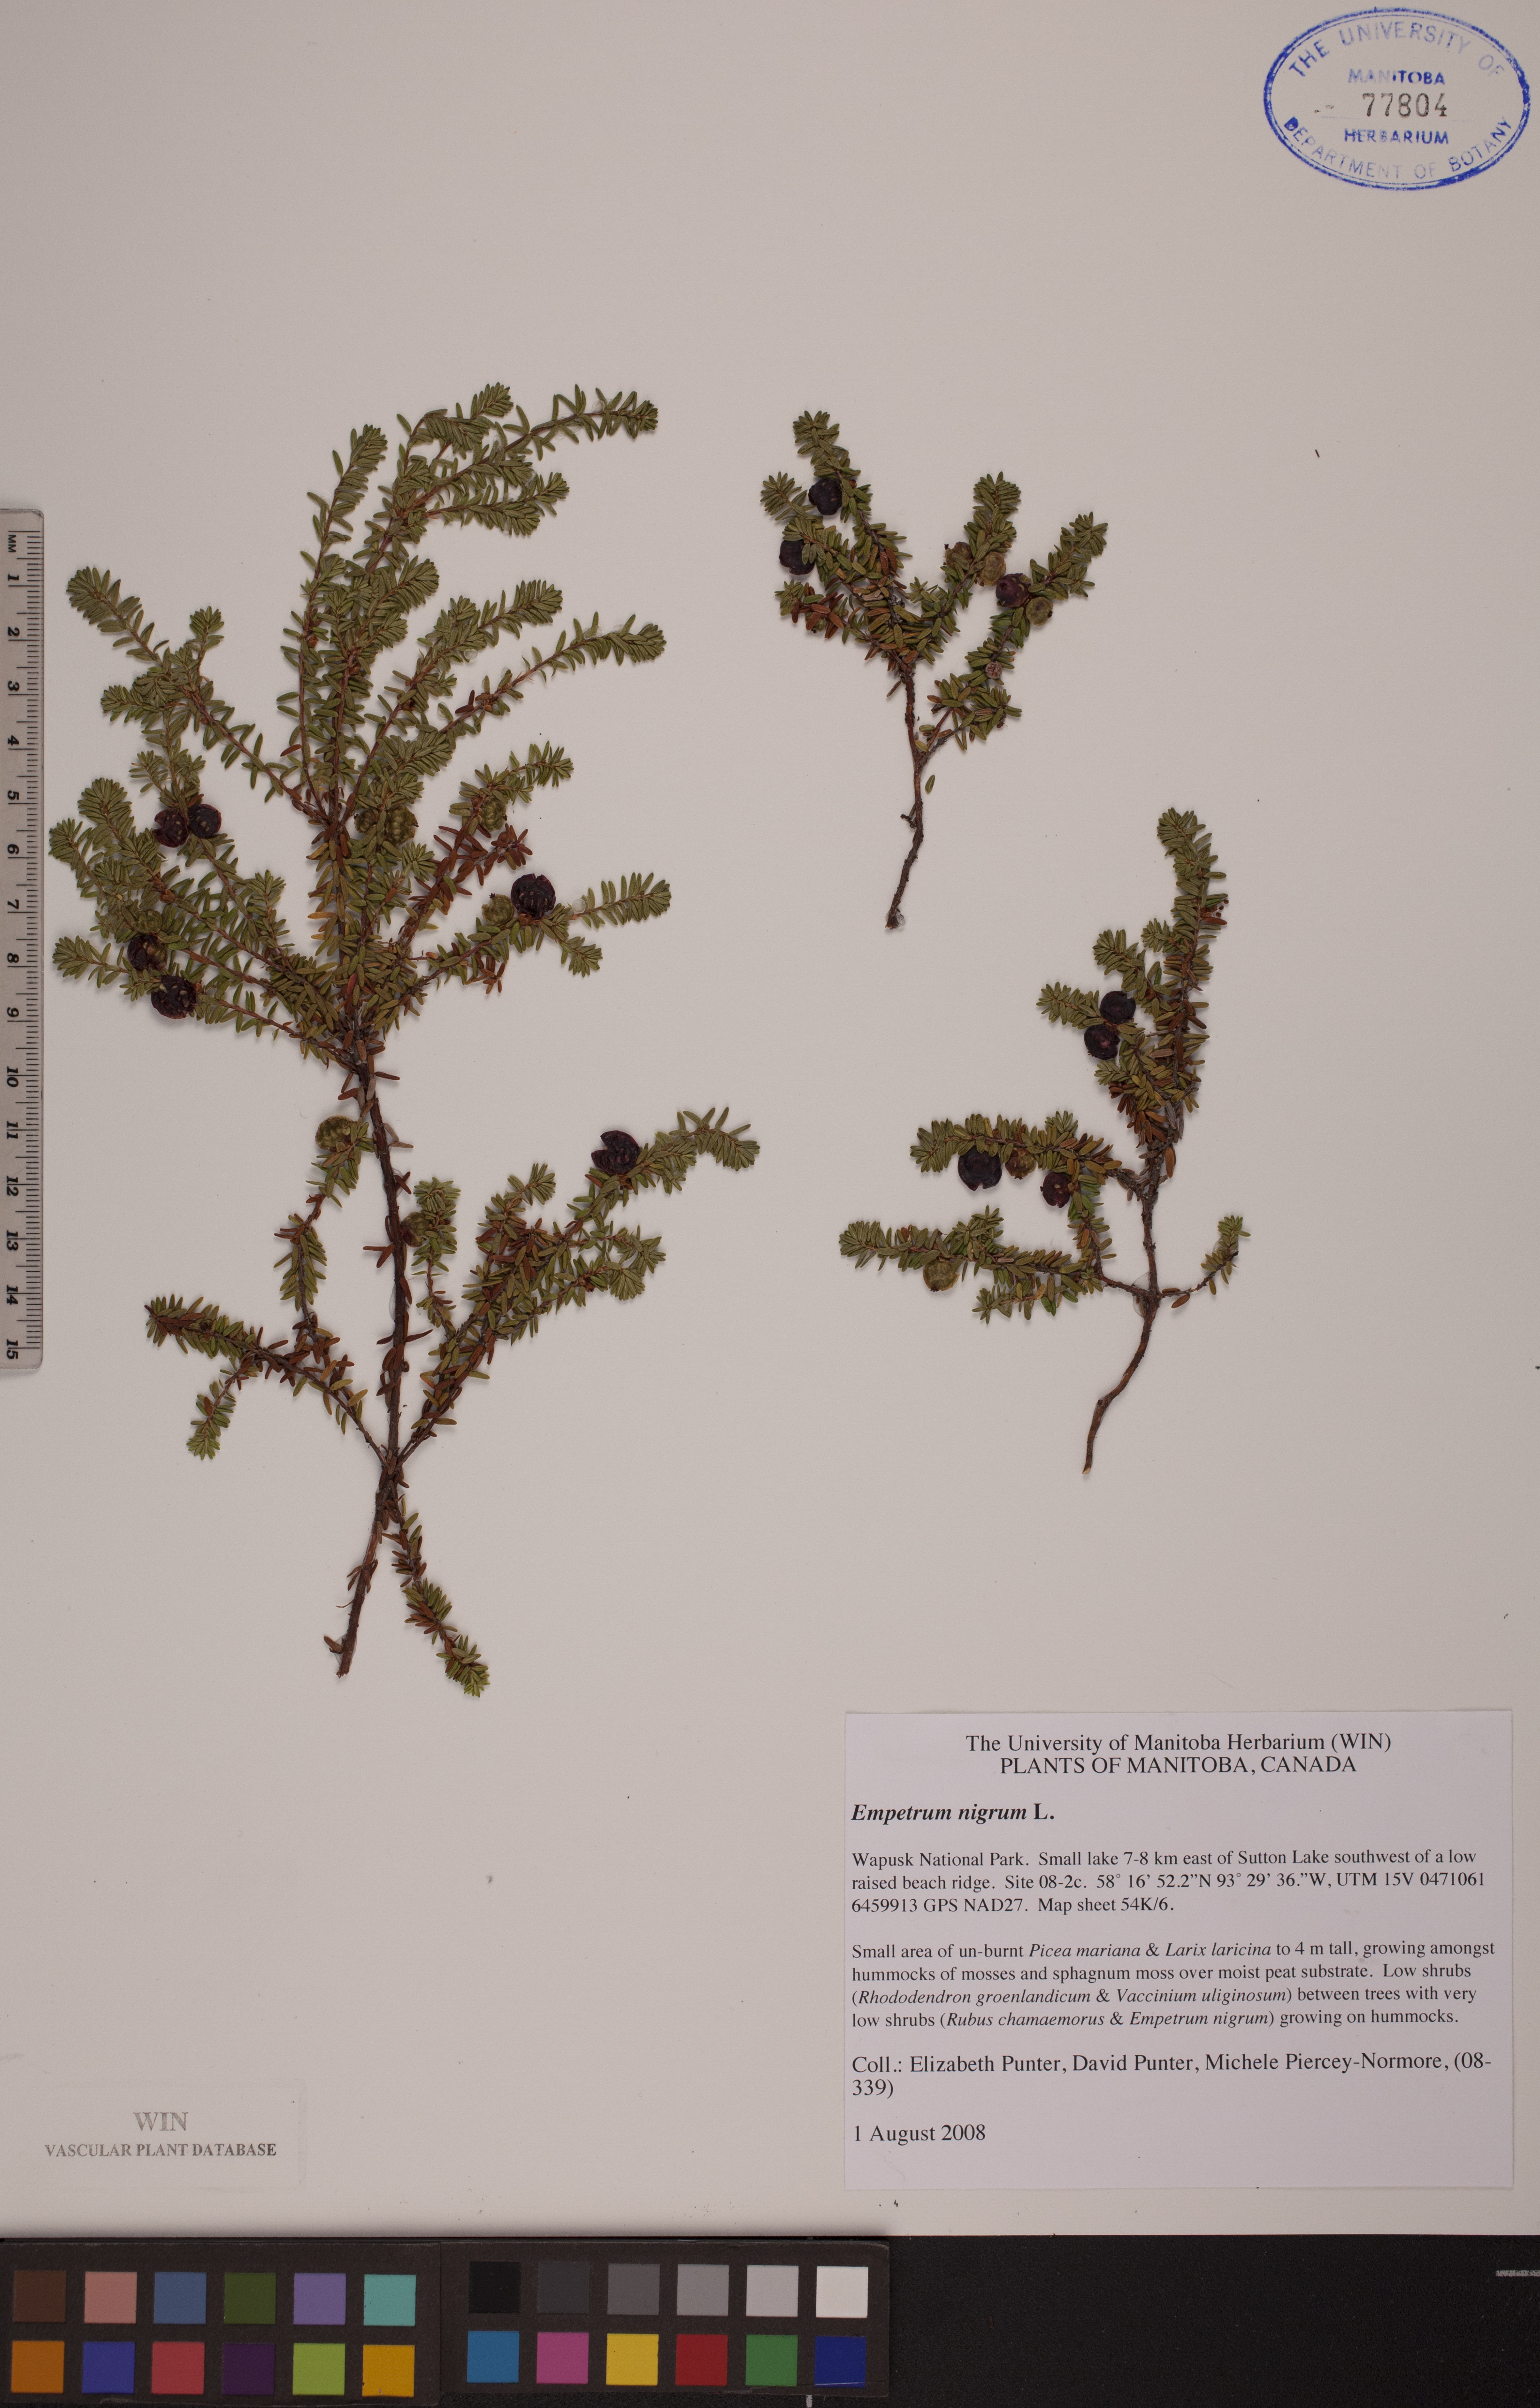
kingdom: Plantae
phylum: Tracheophyta
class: Magnoliopsida
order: Ericales
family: Ericaceae
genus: Empetrum
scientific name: Empetrum nigrum
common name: Black crowberry
